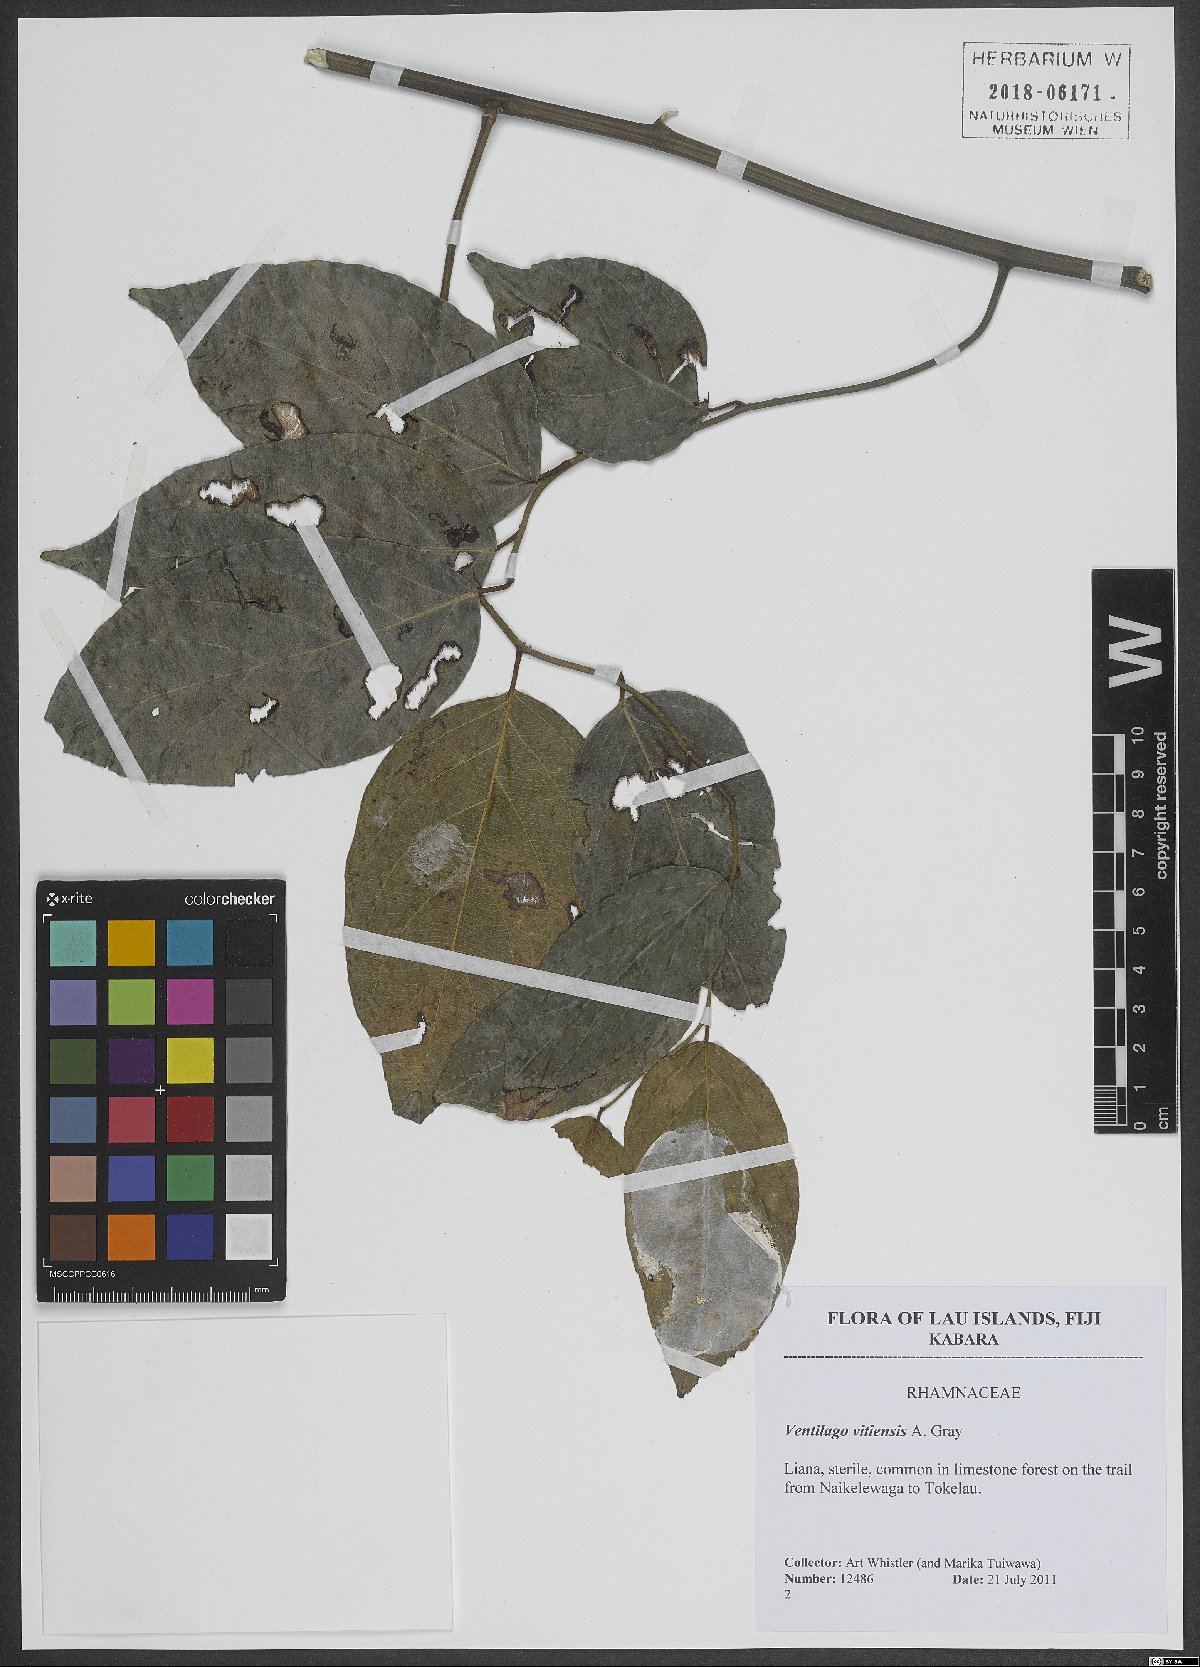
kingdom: Plantae
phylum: Tracheophyta
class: Magnoliopsida
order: Rosales
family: Rhamnaceae
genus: Ventilago
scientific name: Ventilago vitiensis
